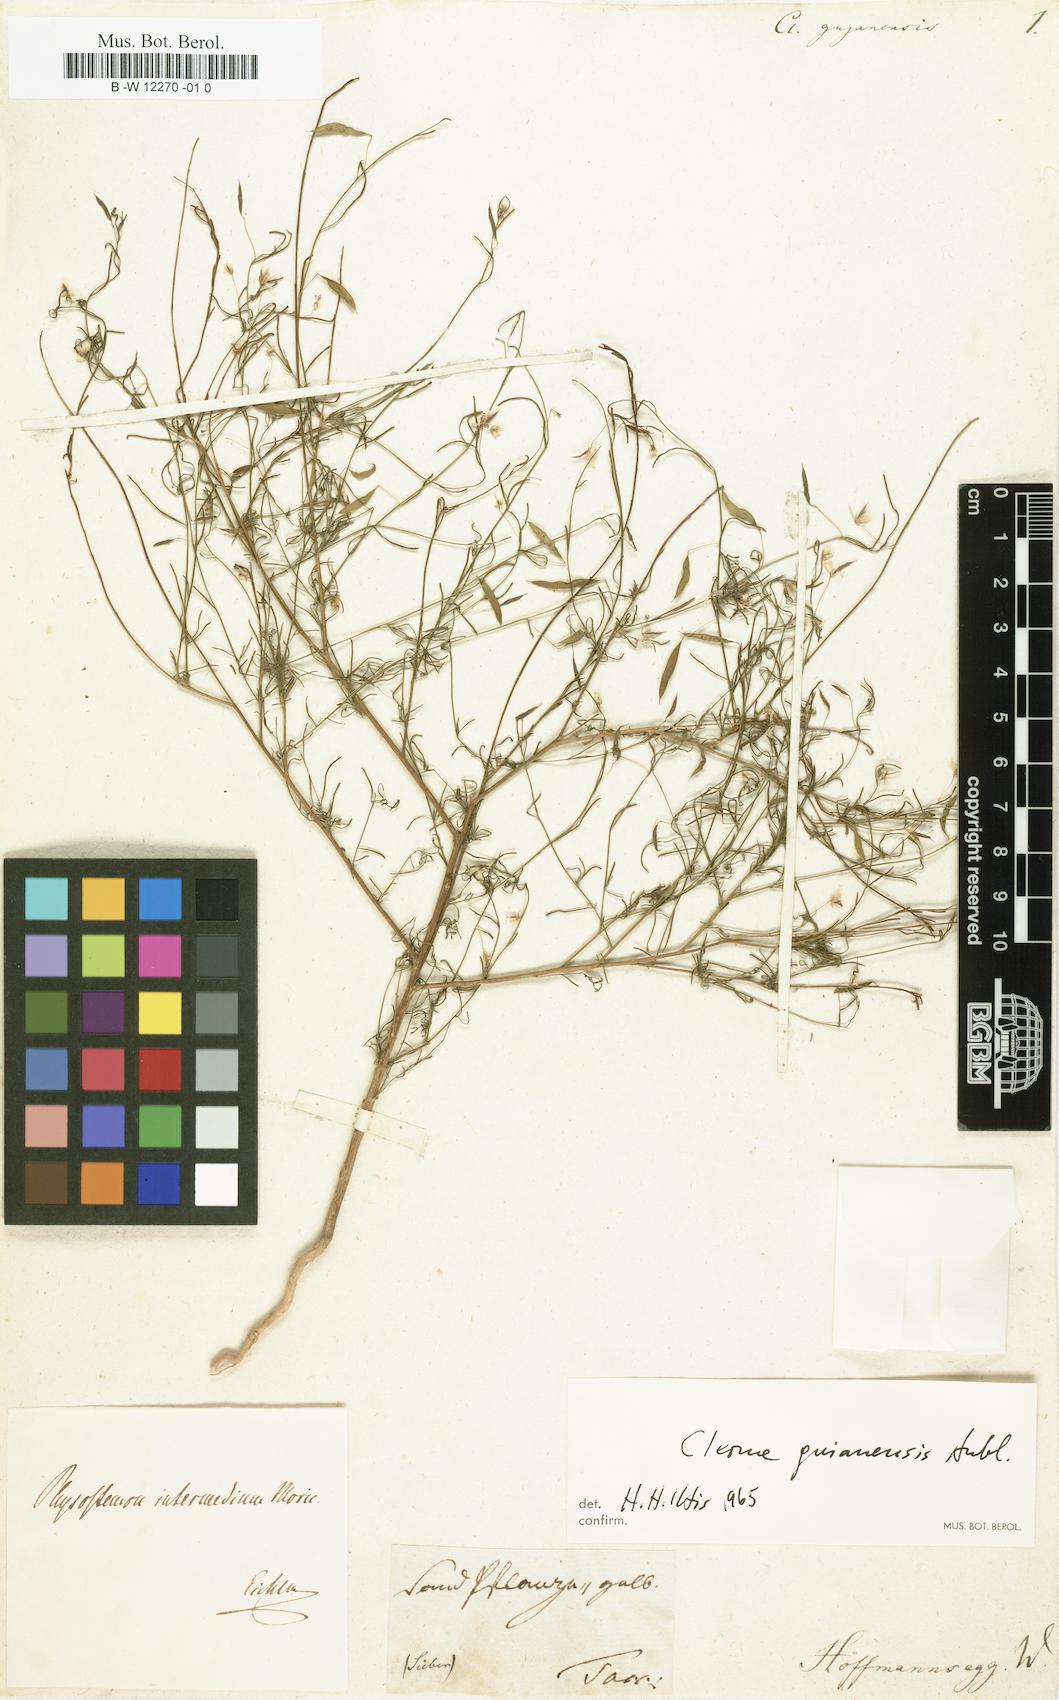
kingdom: Plantae
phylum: Tracheophyta
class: Magnoliopsida
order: Brassicales
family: Cleomaceae
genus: Physostemon
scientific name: Physostemon guianensis
